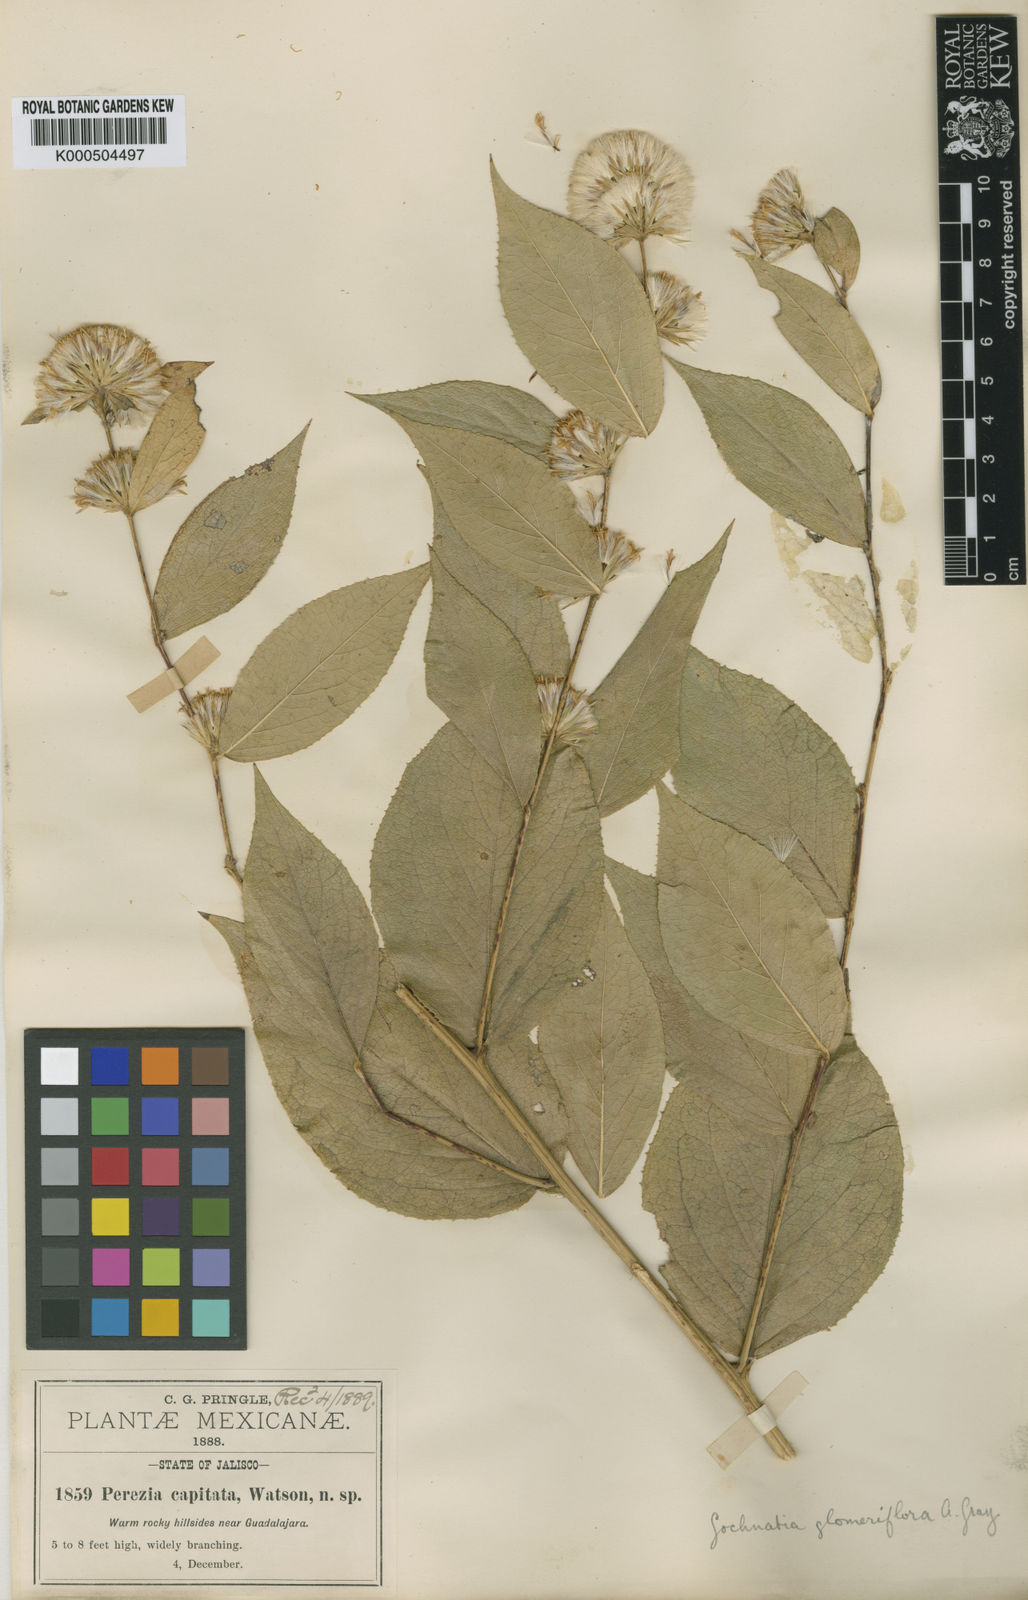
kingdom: Plantae
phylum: Tracheophyta
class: Magnoliopsida
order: Asterales
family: Asteraceae
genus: Acourtia
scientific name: Acourtia glomeriflora
